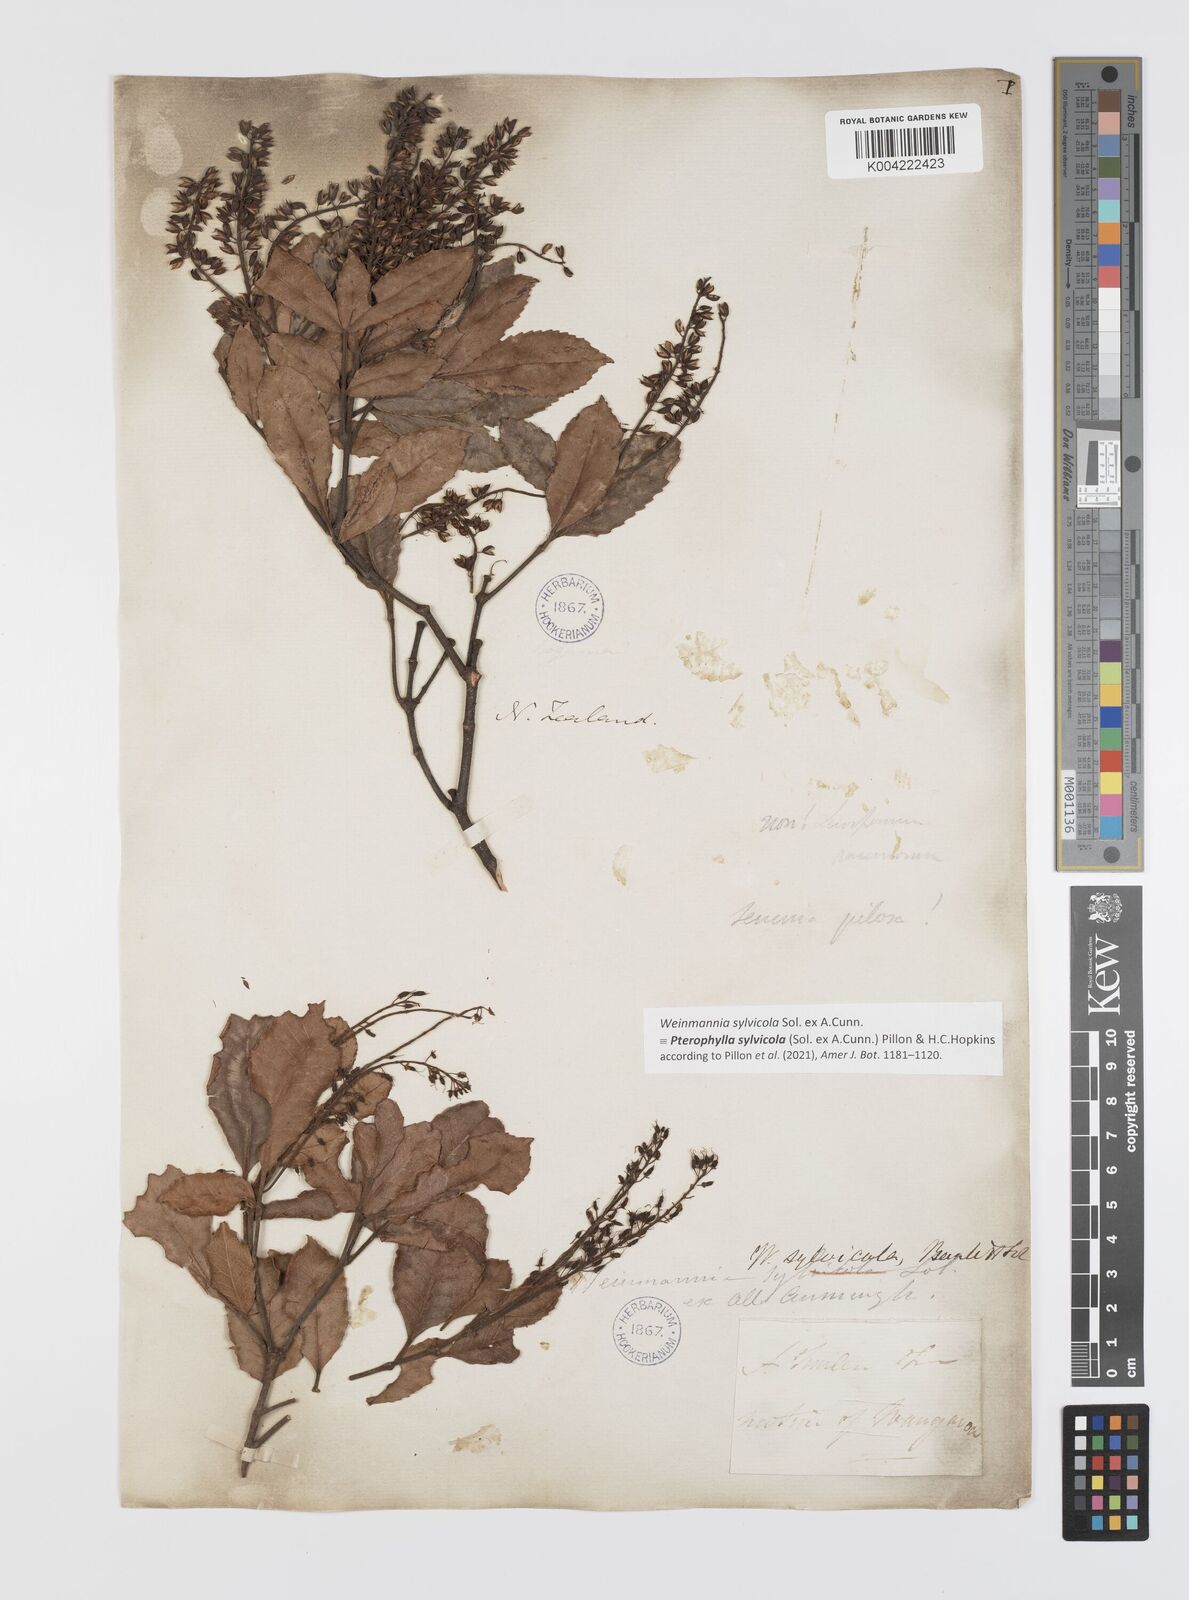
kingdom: Plantae
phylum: Tracheophyta
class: Magnoliopsida
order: Oxalidales
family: Cunoniaceae
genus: Pterophylla
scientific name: Pterophylla sylvicola
